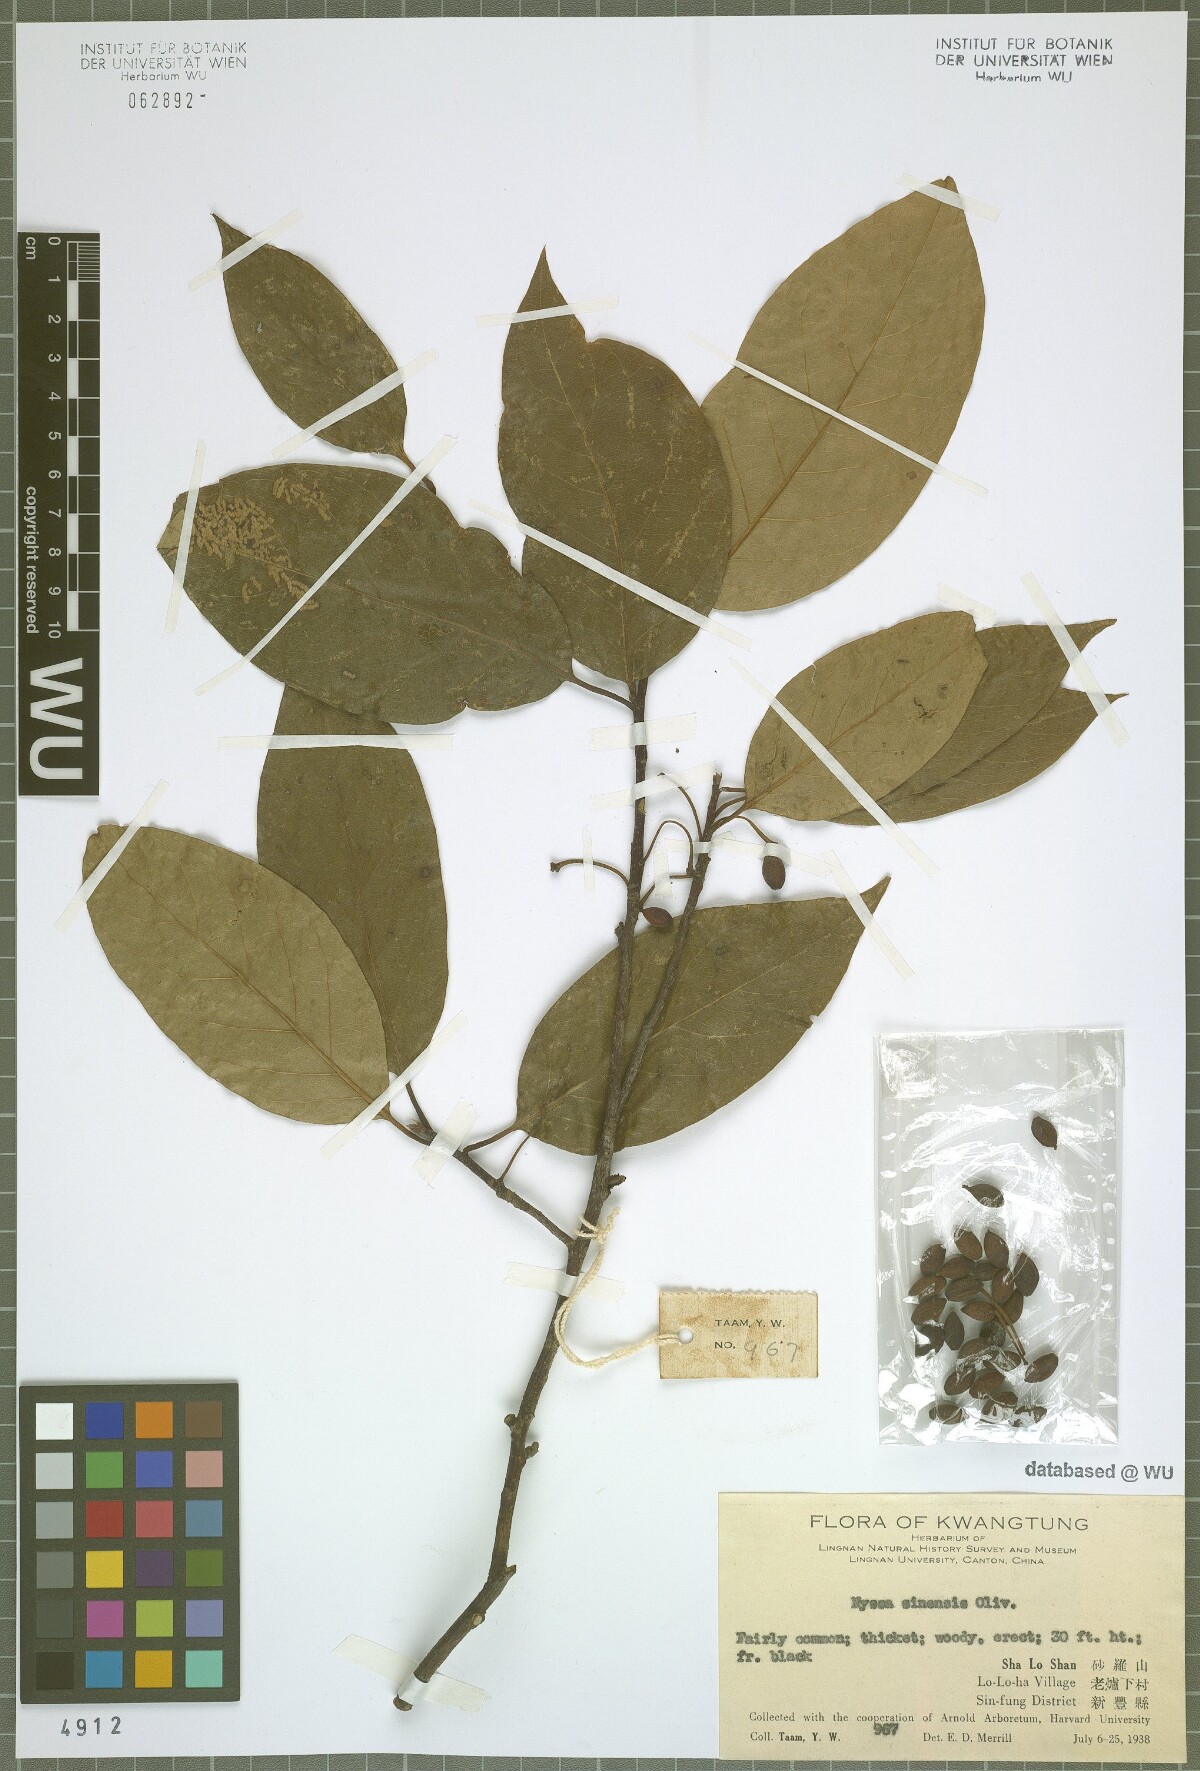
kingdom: Plantae
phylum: Tracheophyta
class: Magnoliopsida
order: Cornales
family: Nyssaceae
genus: Nyssa
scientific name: Nyssa sinensis
